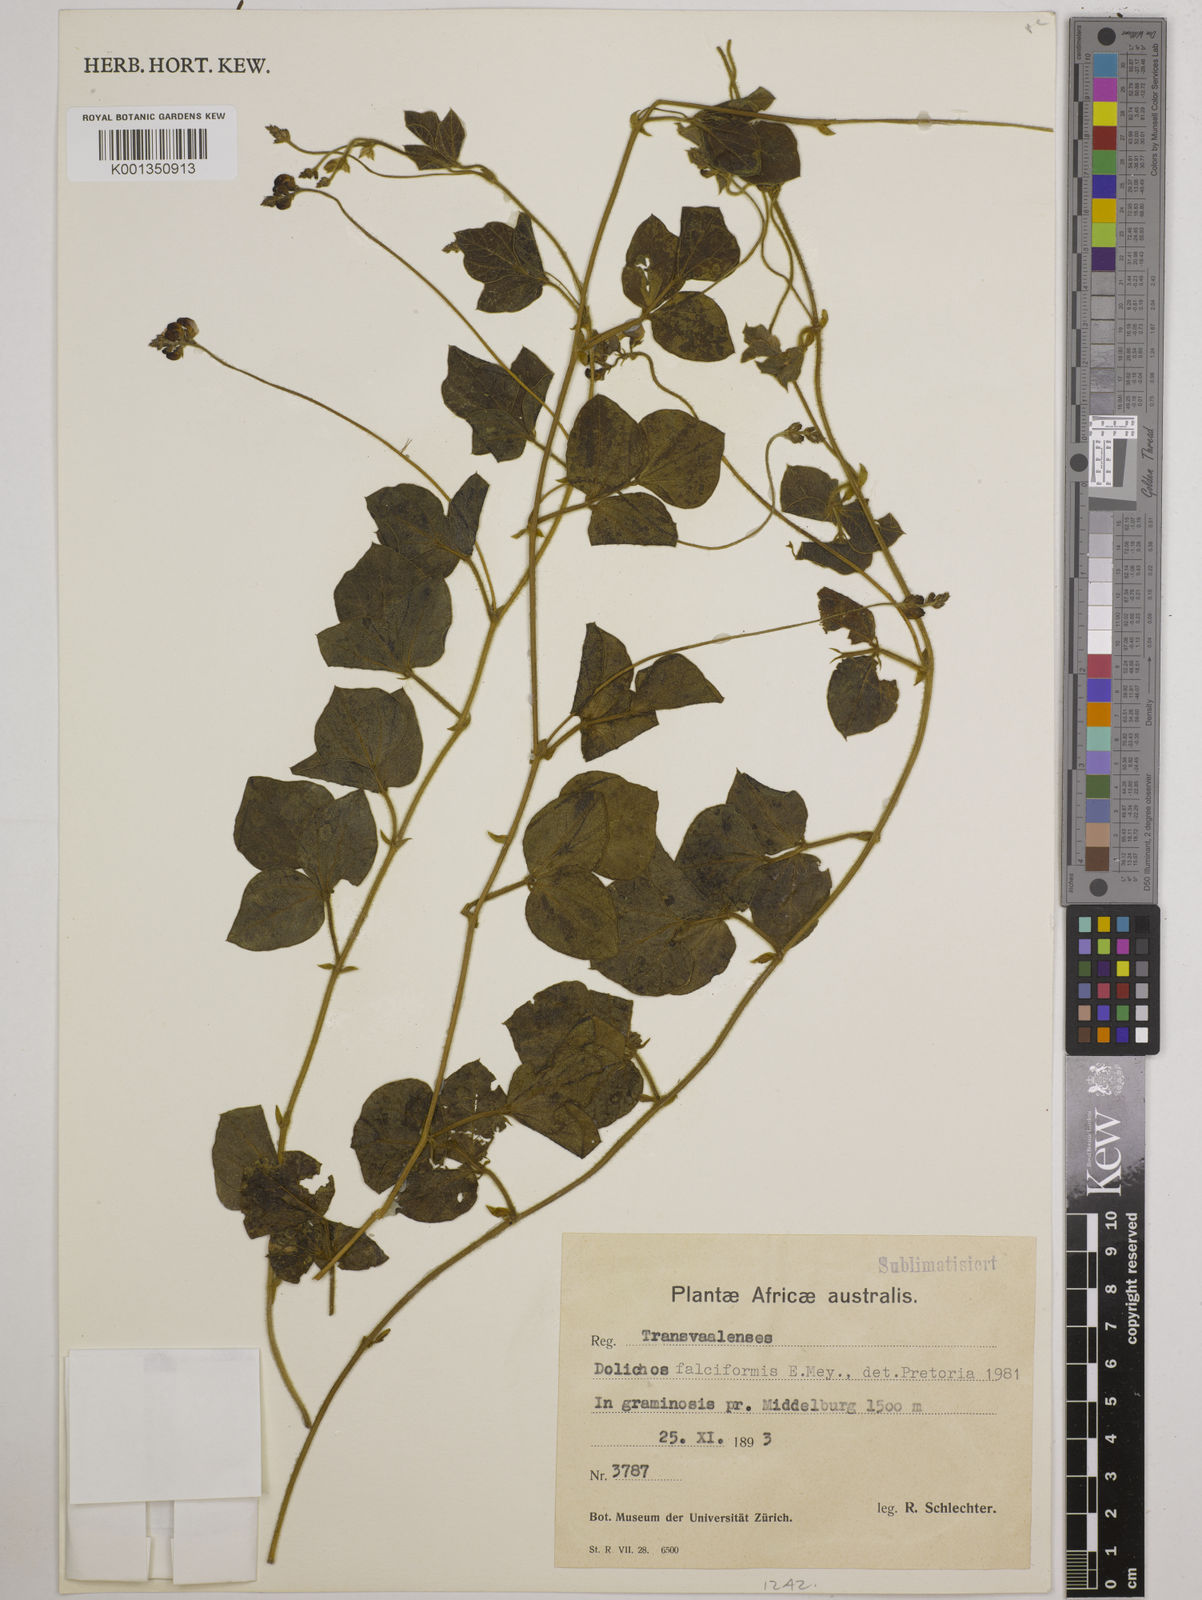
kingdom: Plantae
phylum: Tracheophyta
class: Magnoliopsida
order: Fabales
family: Fabaceae
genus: Dolichos
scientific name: Dolichos falciformis
